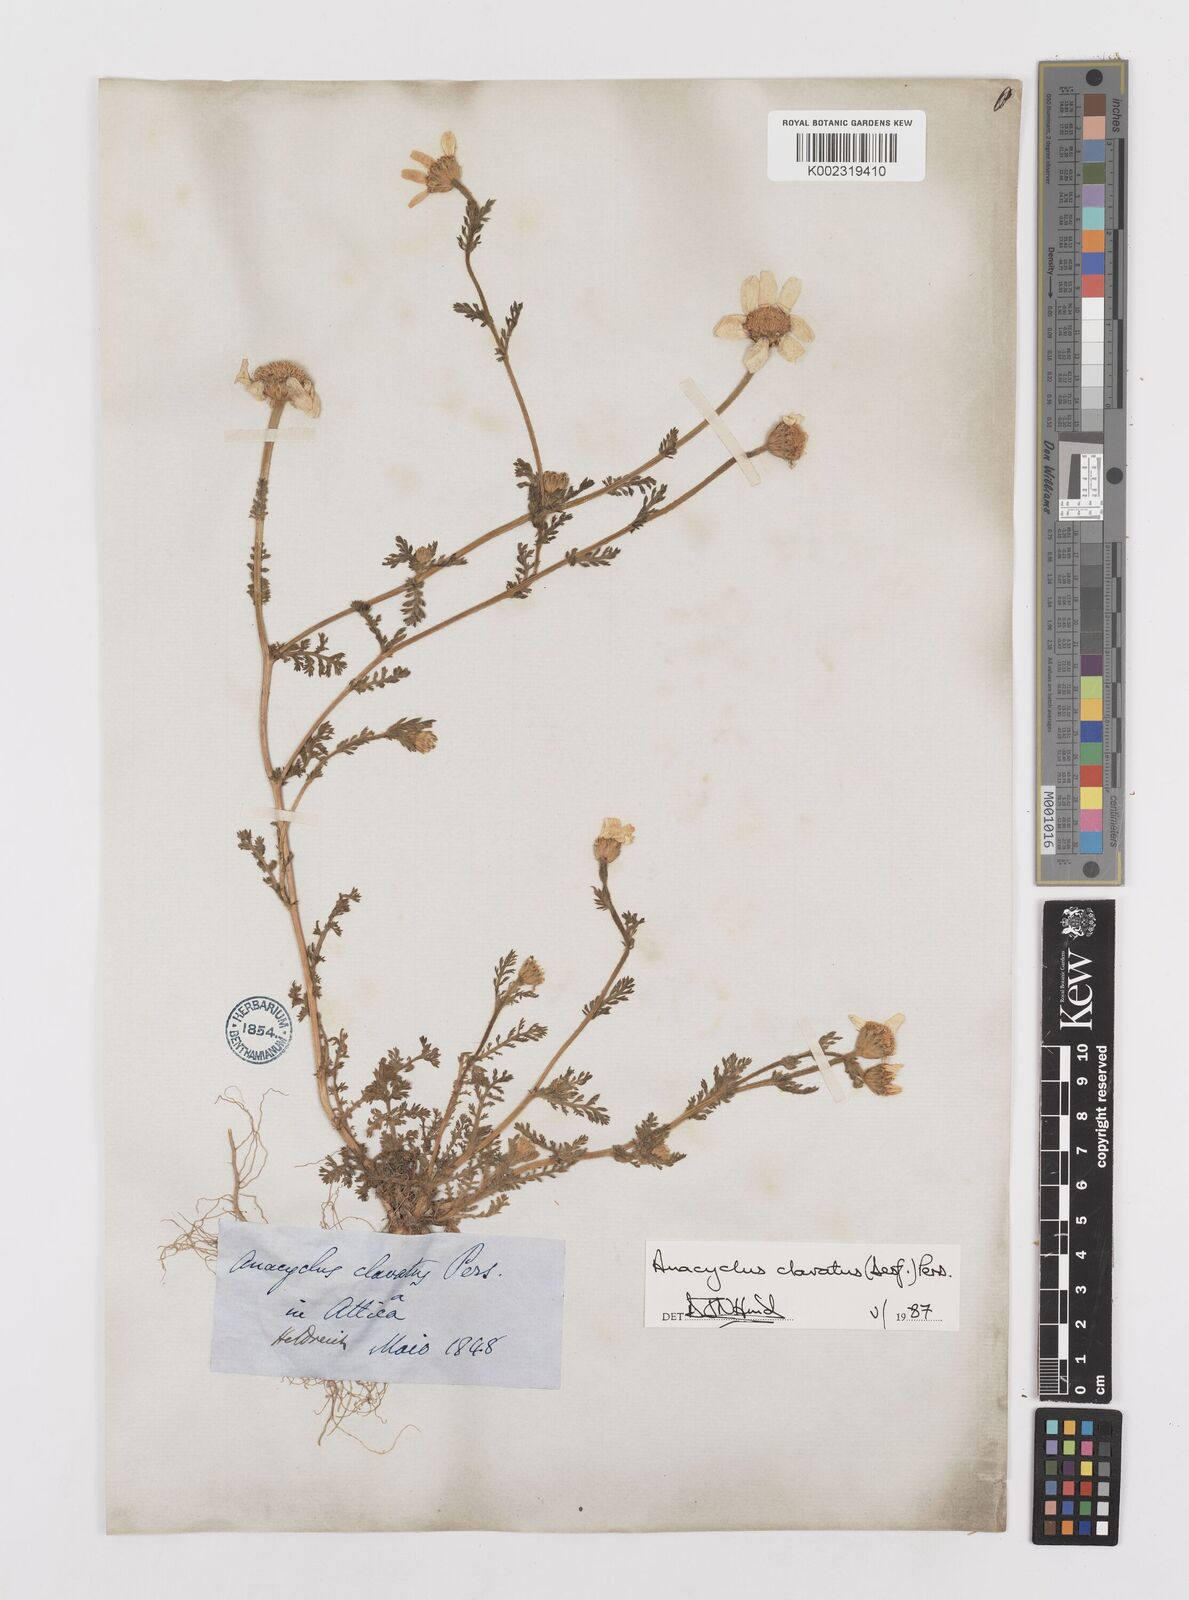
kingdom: Plantae
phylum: Tracheophyta
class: Magnoliopsida
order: Asterales
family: Asteraceae
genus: Anacyclus
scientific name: Anacyclus clavatus
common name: Whitebuttons
